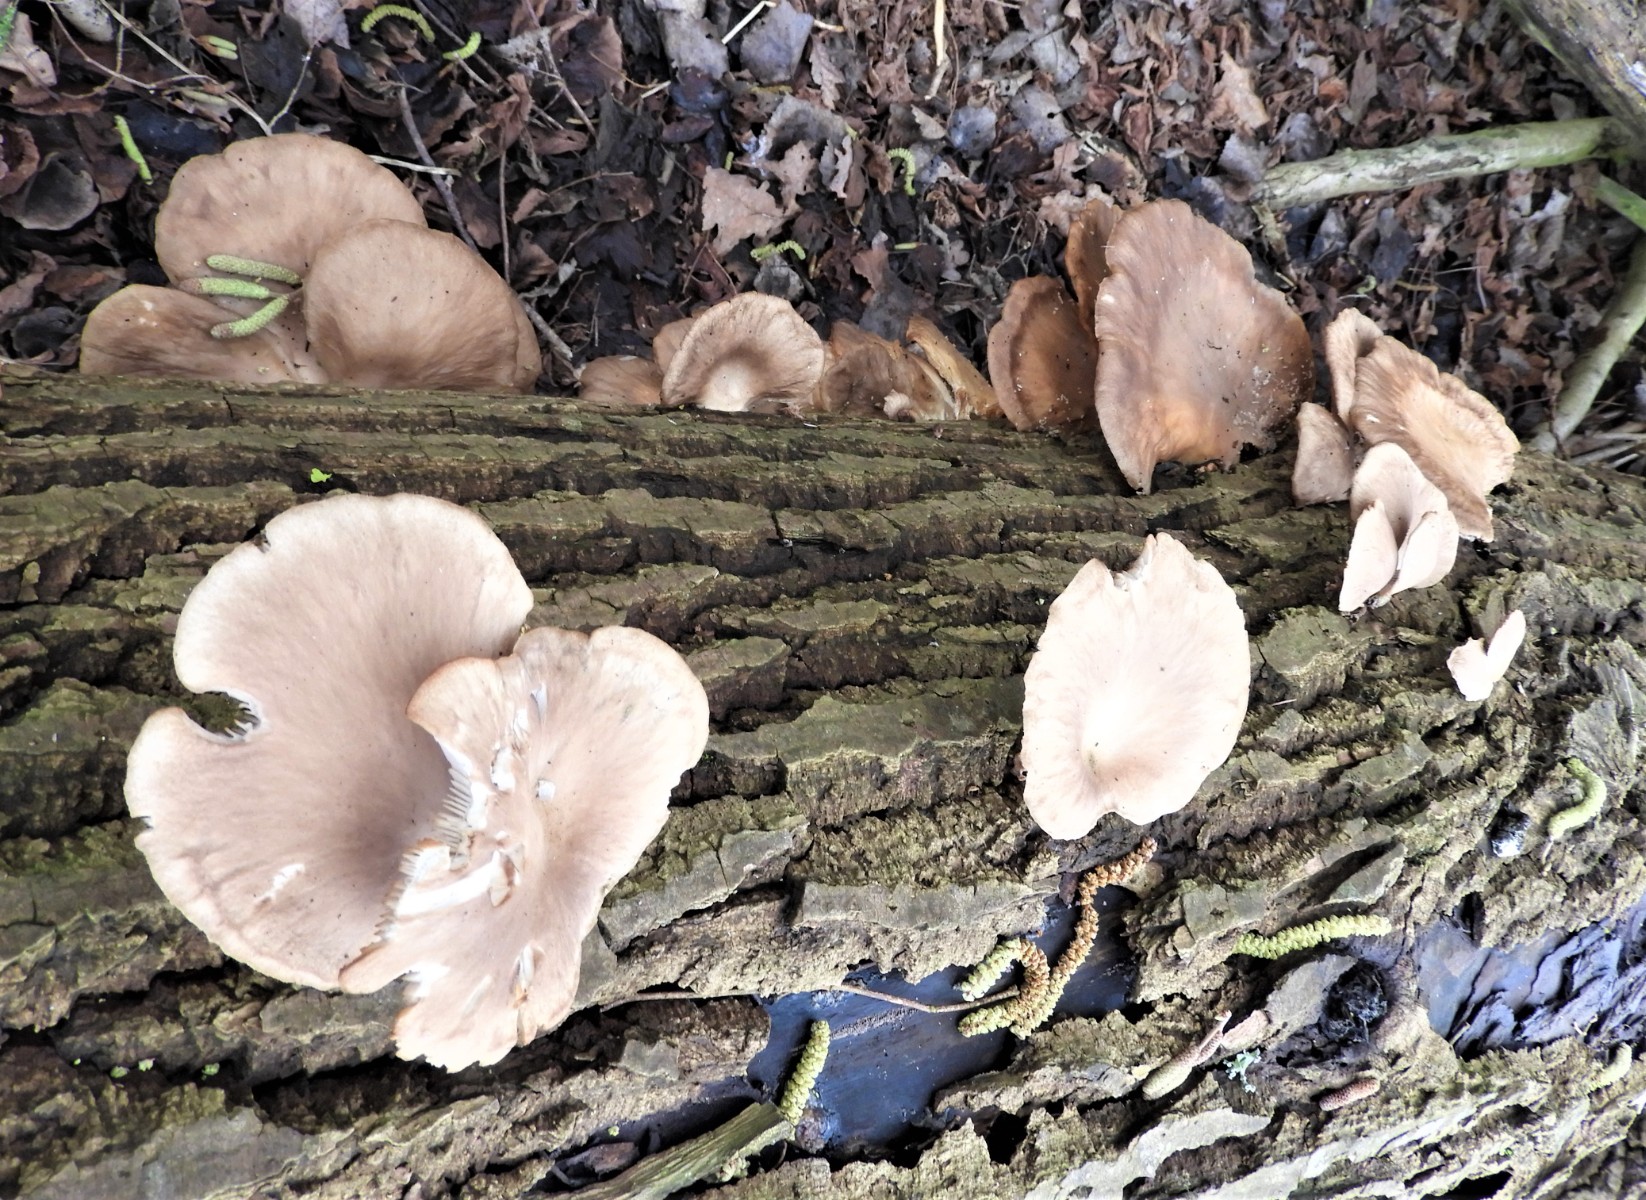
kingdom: Fungi
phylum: Basidiomycota
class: Agaricomycetes
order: Agaricales
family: Pleurotaceae
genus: Pleurotus
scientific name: Pleurotus ostreatus
